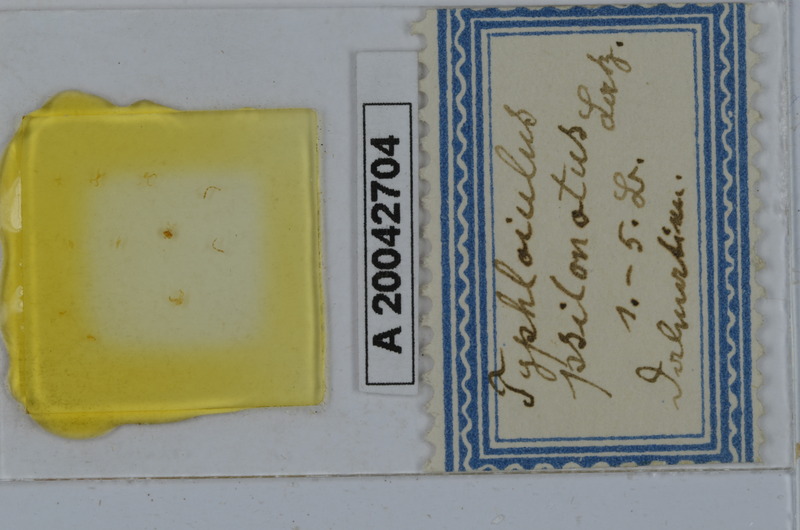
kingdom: Animalia
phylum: Arthropoda
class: Diplopoda
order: Julida
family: Julidae
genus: Typhloiulus
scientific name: Typhloiulus psilonotus
